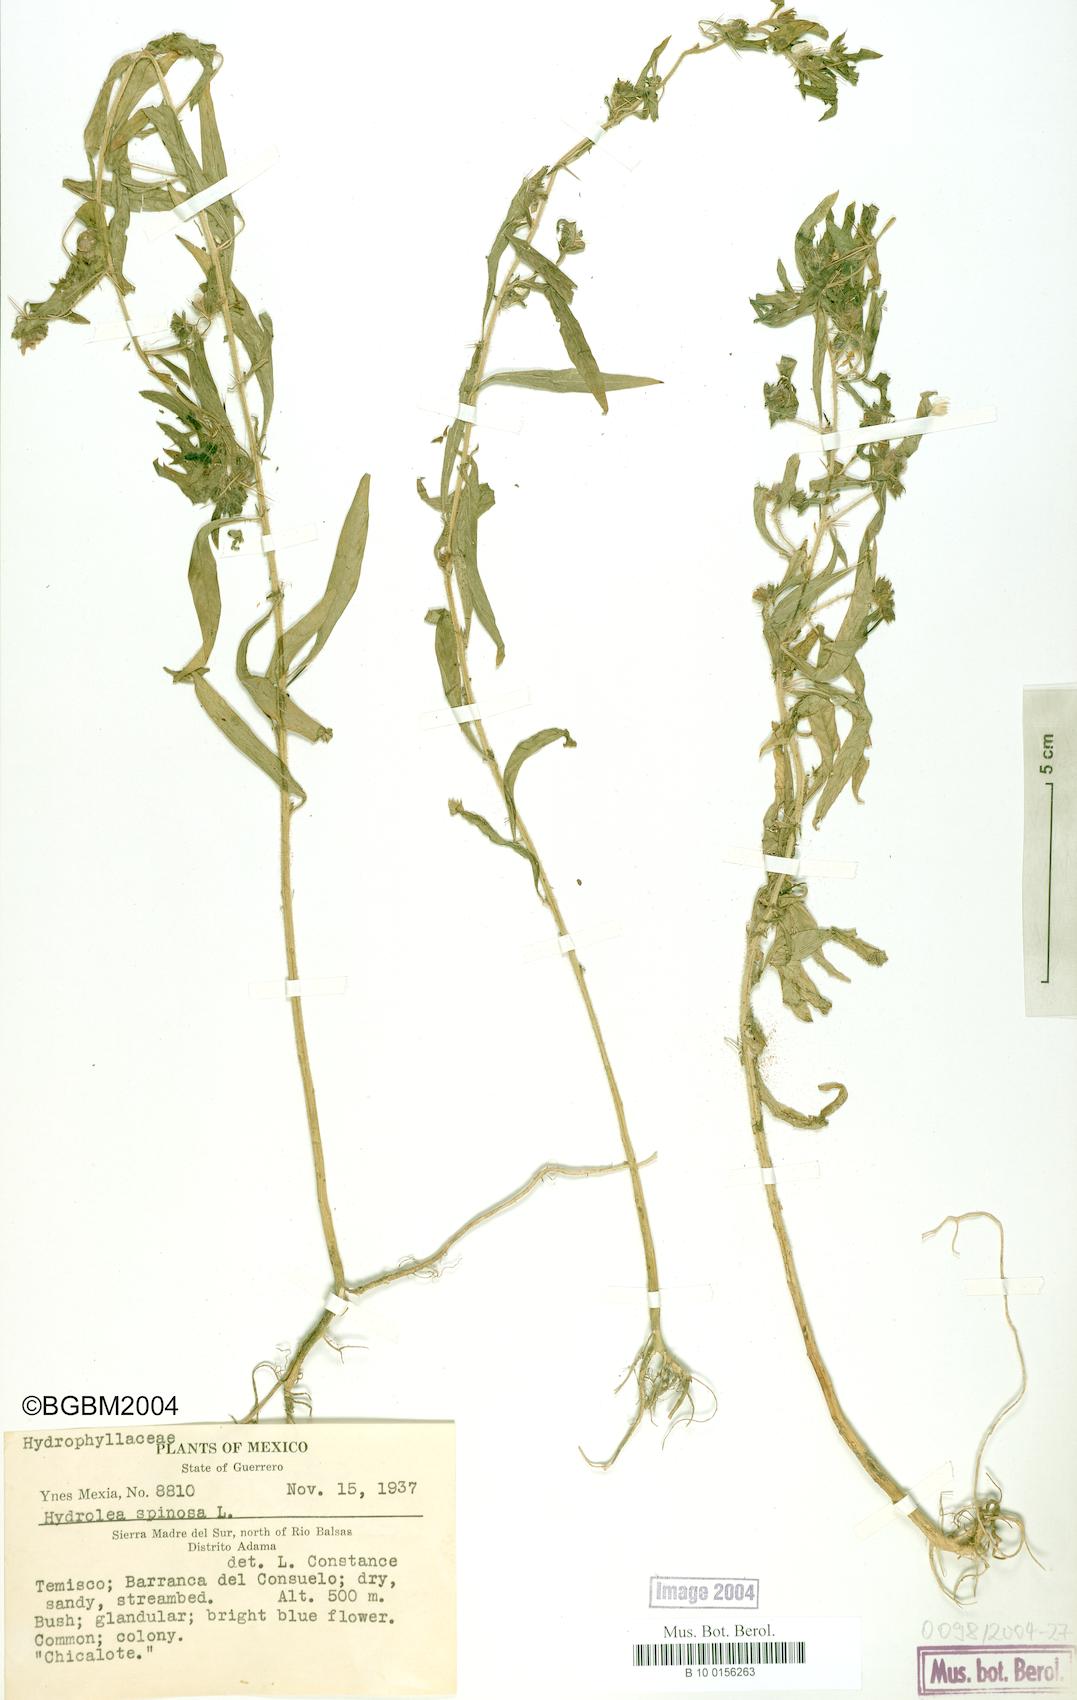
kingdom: Plantae
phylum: Tracheophyta
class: Magnoliopsida
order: Solanales
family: Hydroleaceae
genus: Hydrolea
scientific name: Hydrolea spinosa
